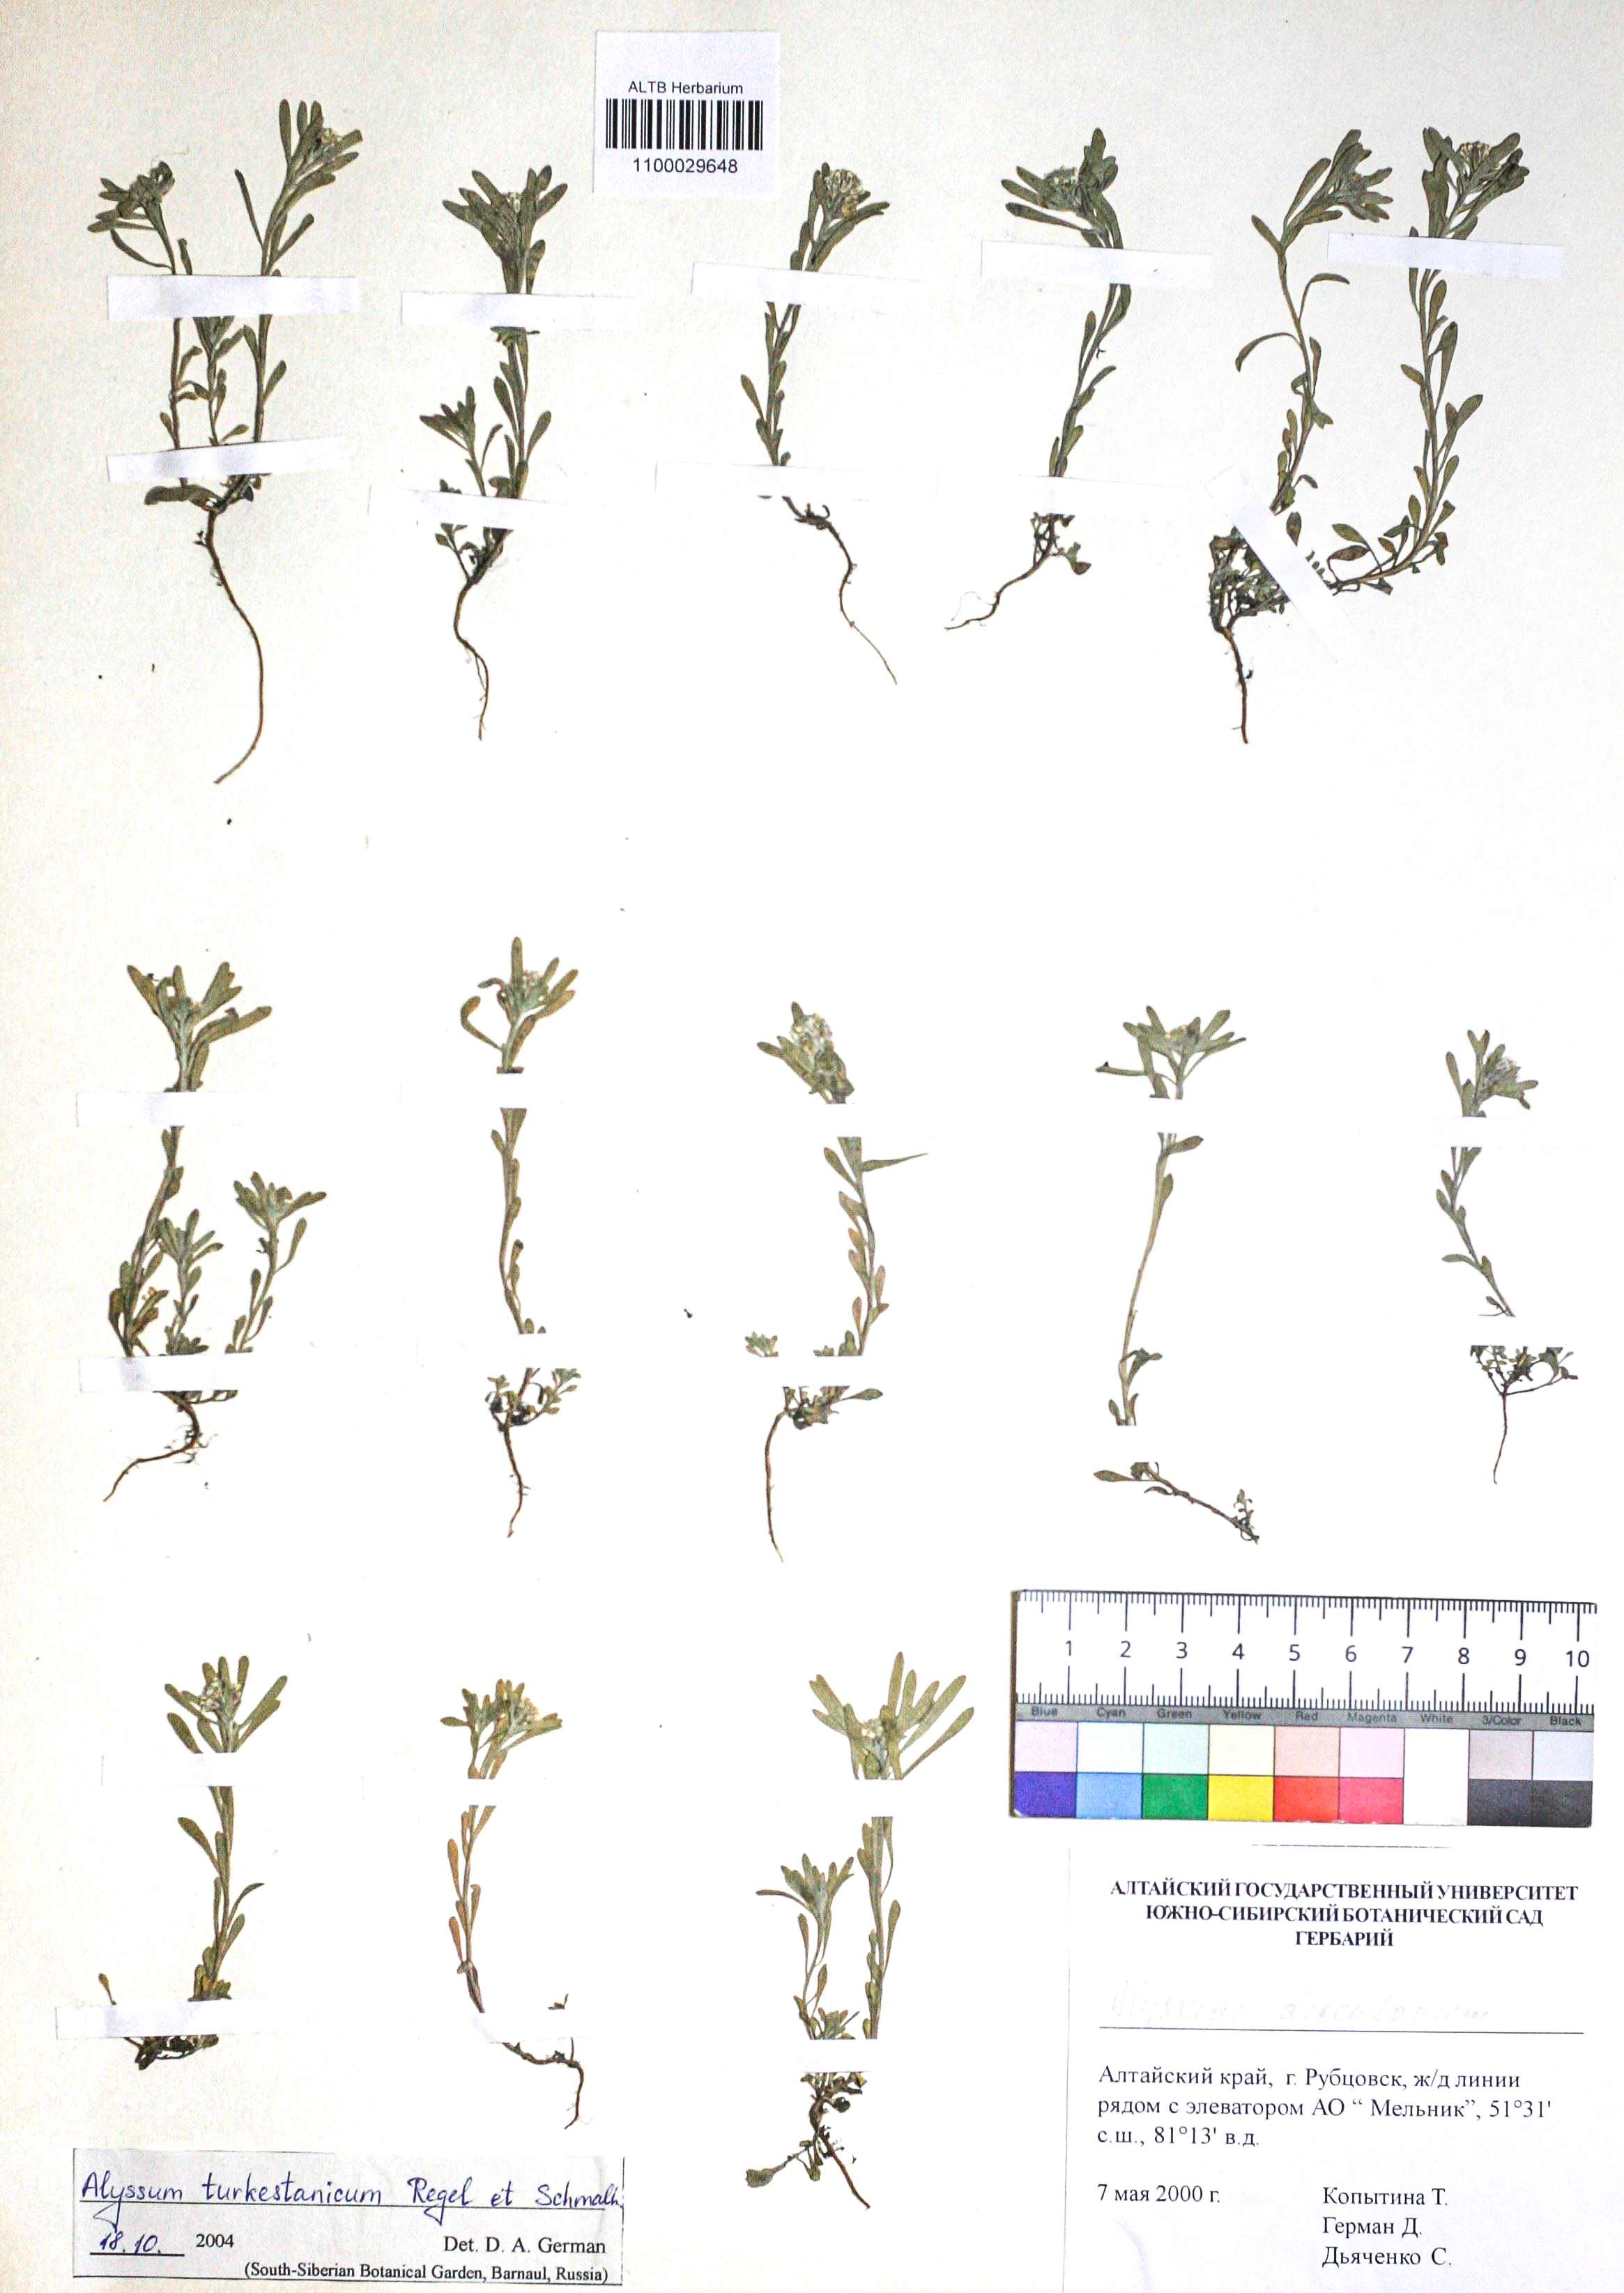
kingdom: Plantae
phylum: Tracheophyta
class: Magnoliopsida
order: Brassicales
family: Brassicaceae
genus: Alyssum
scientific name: Alyssum turkestanicum
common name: Desert alyssum
